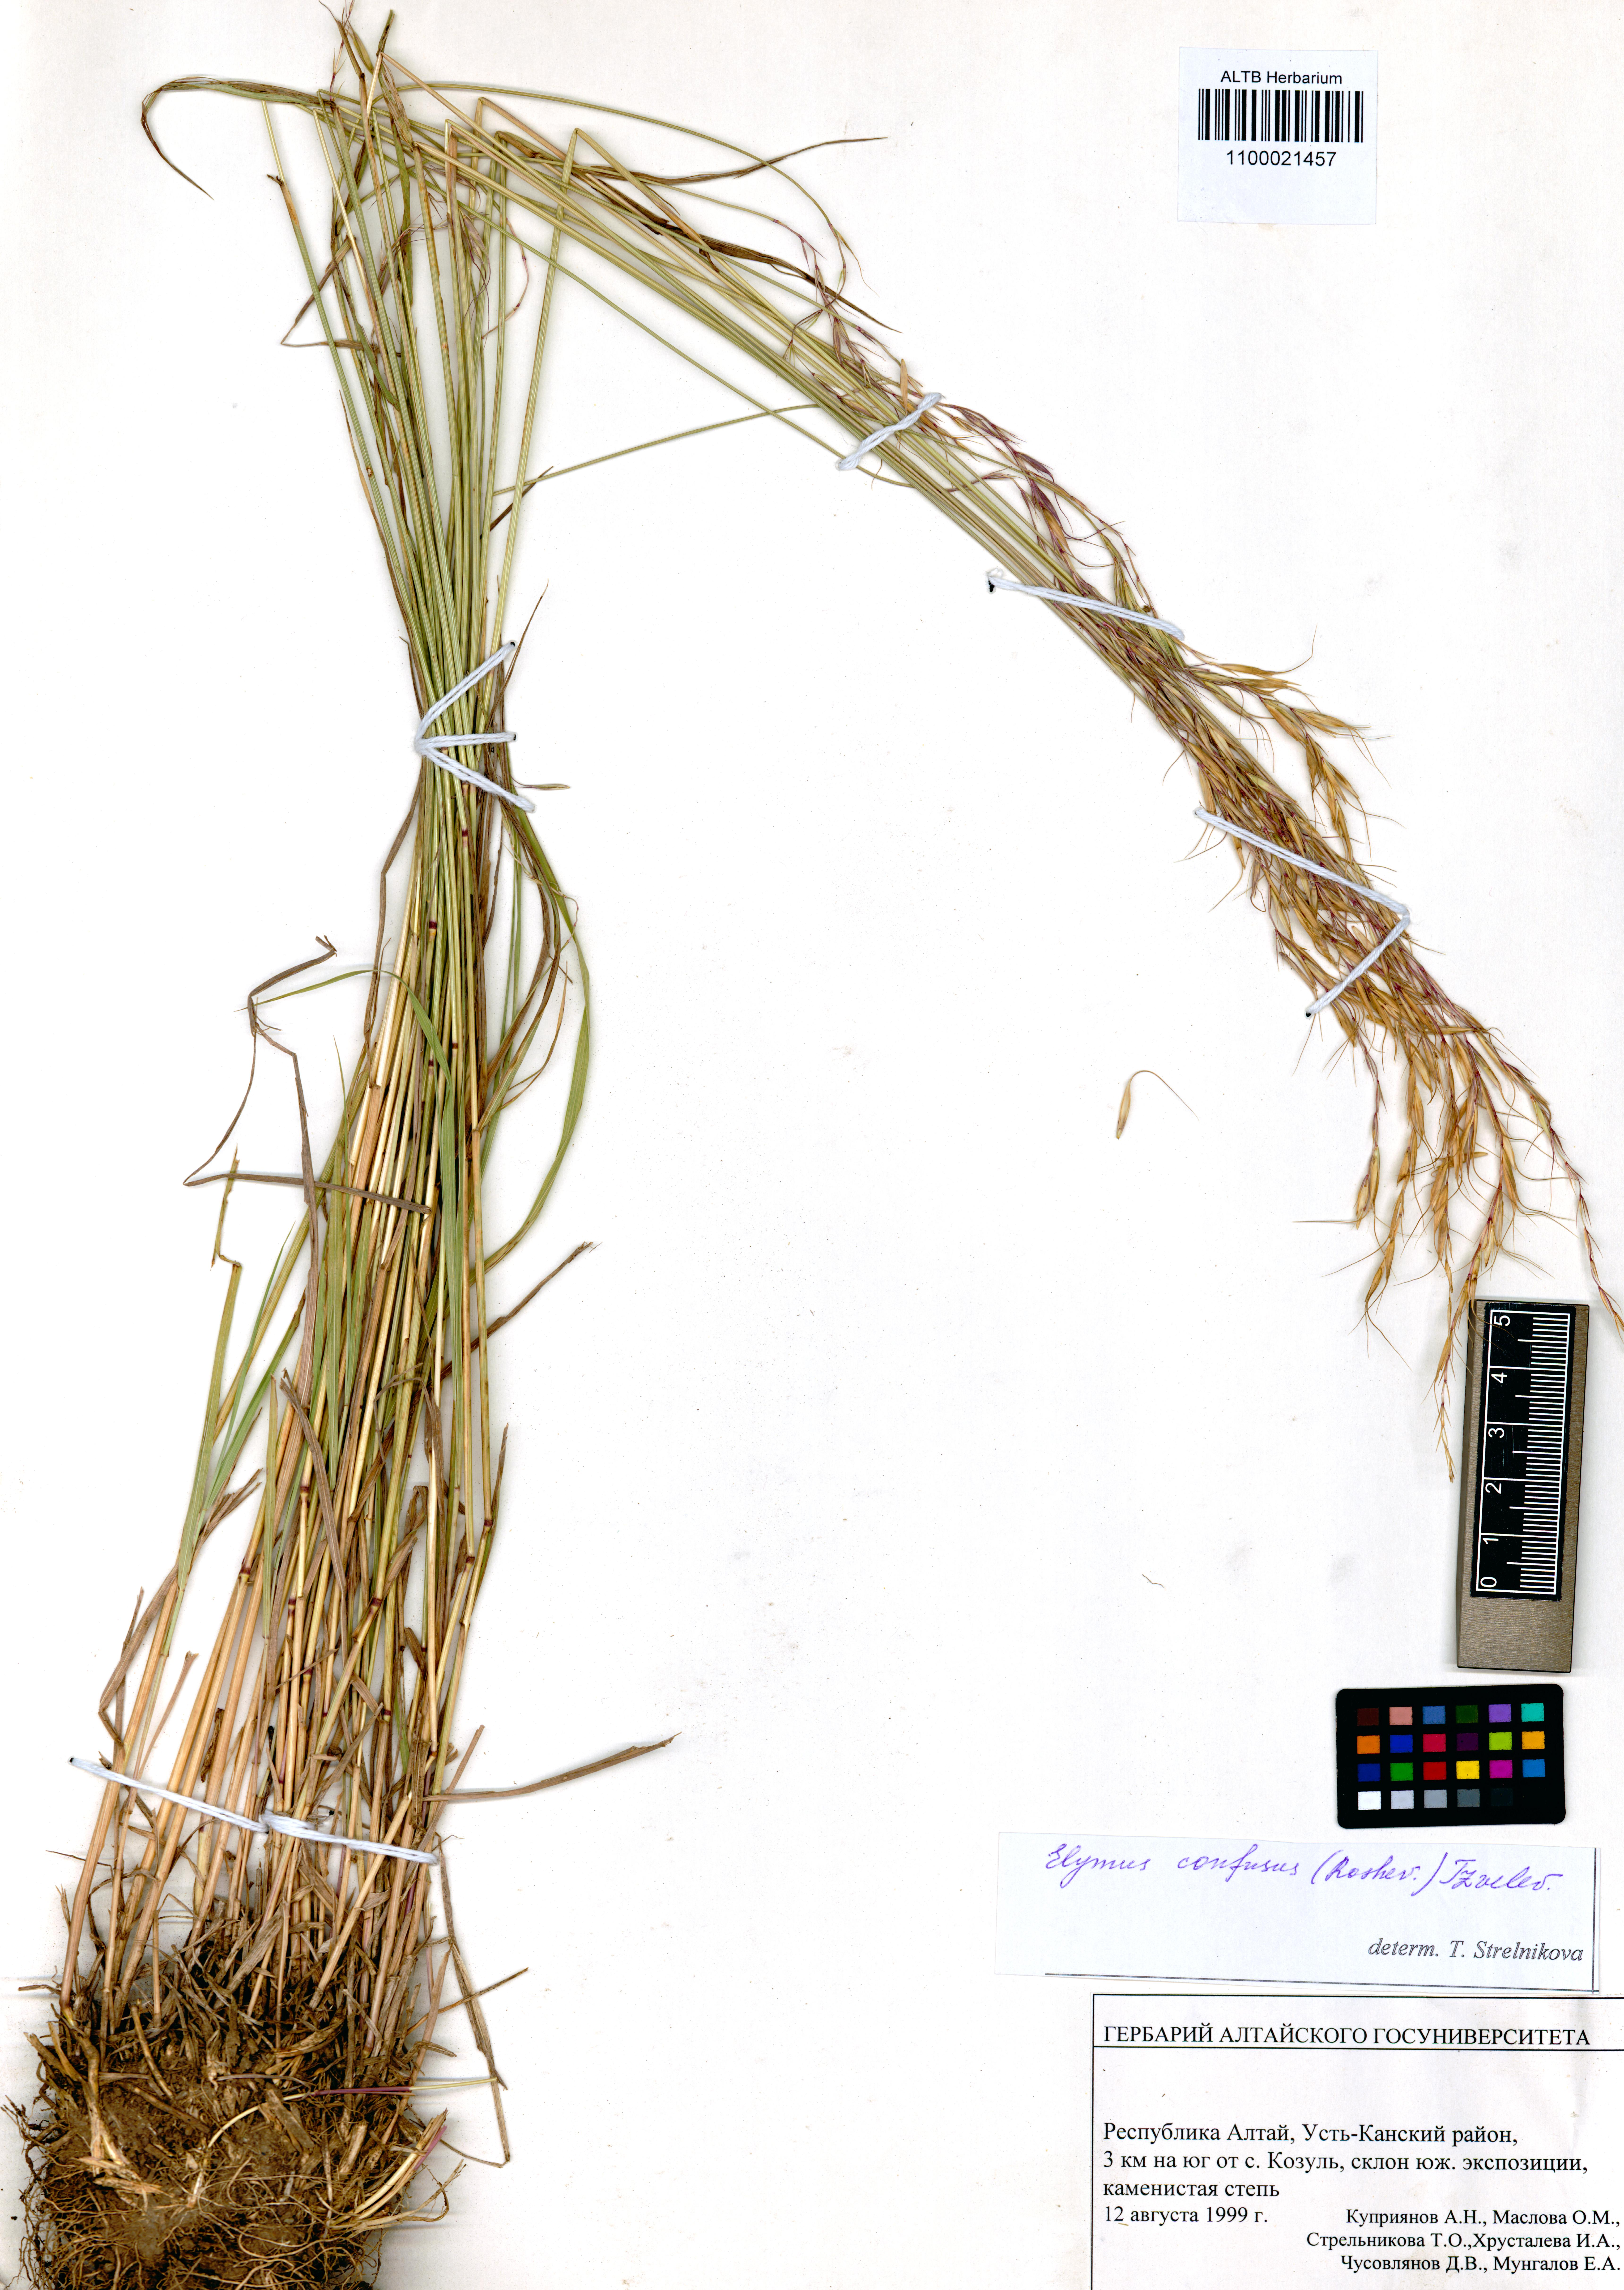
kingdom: Plantae
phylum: Tracheophyta
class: Liliopsida
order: Poales
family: Poaceae
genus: Elymus
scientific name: Elymus caninus
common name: Bearded couch
